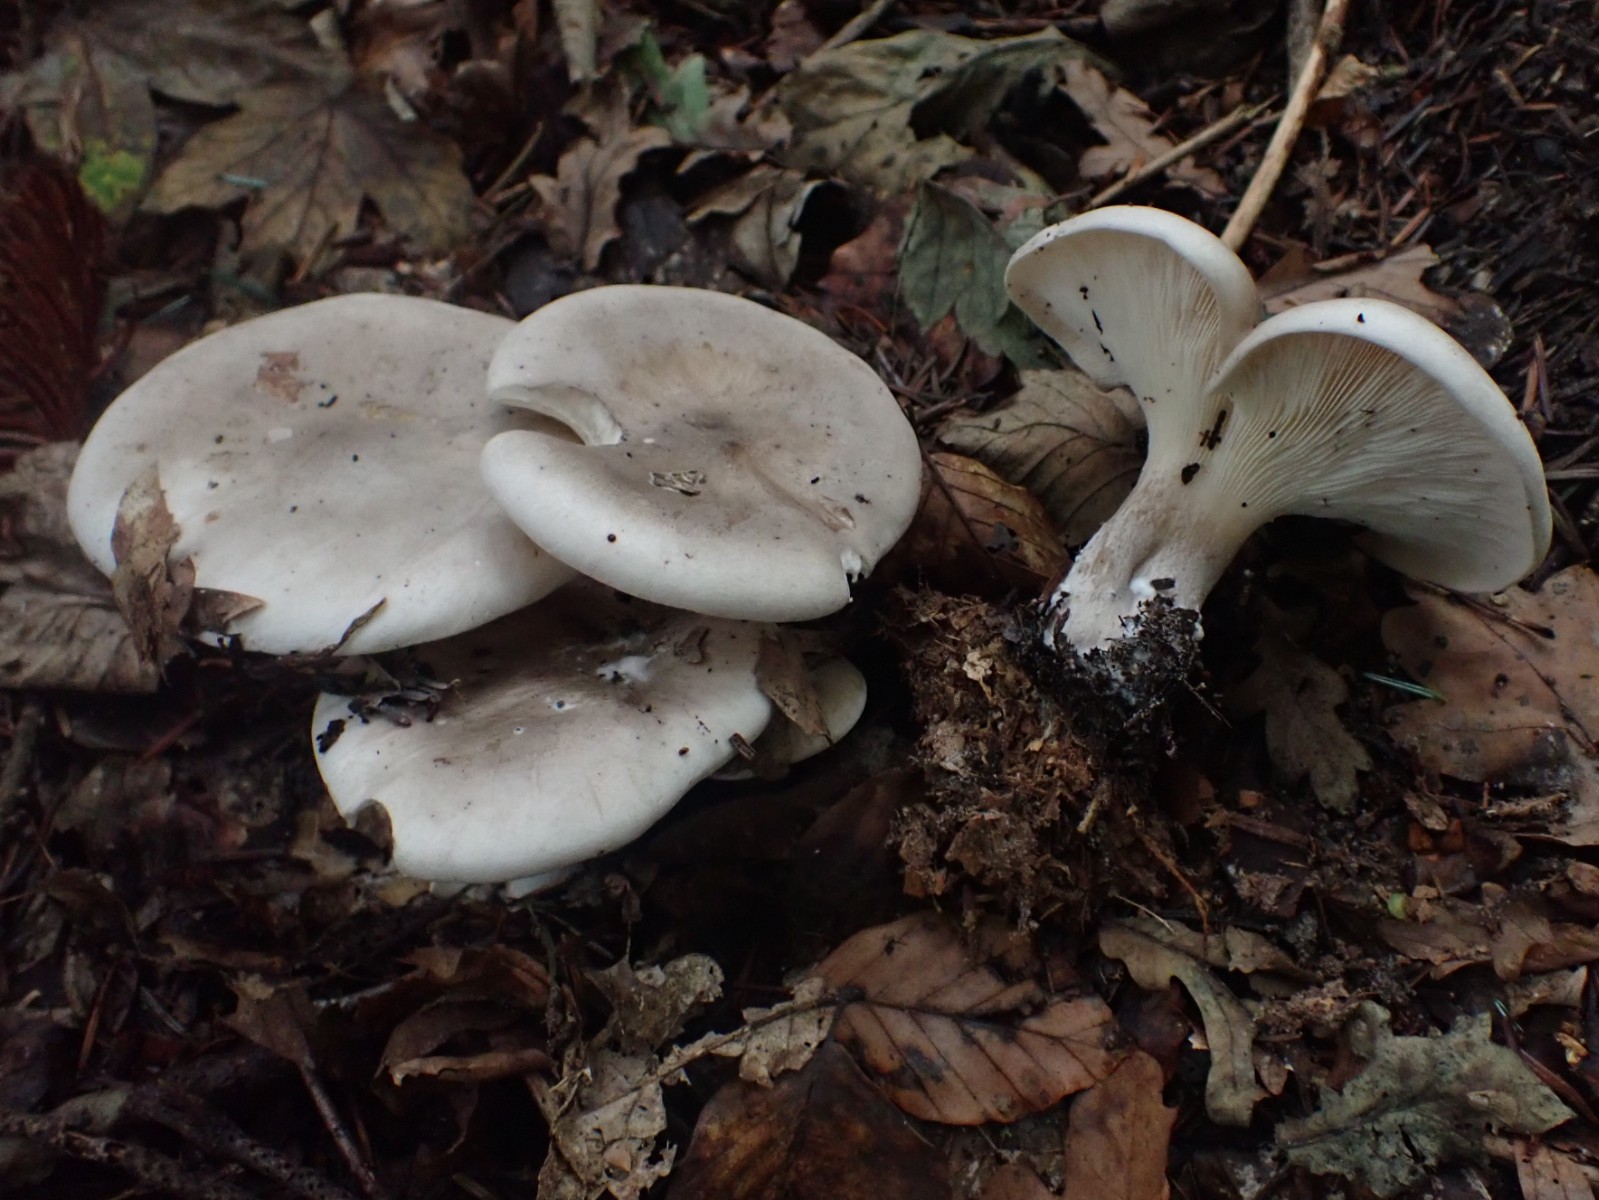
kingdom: Fungi
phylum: Basidiomycota
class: Agaricomycetes
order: Agaricales
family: Tricholomataceae
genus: Clitocybe
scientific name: Clitocybe nebularis
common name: tåge-tragthat
